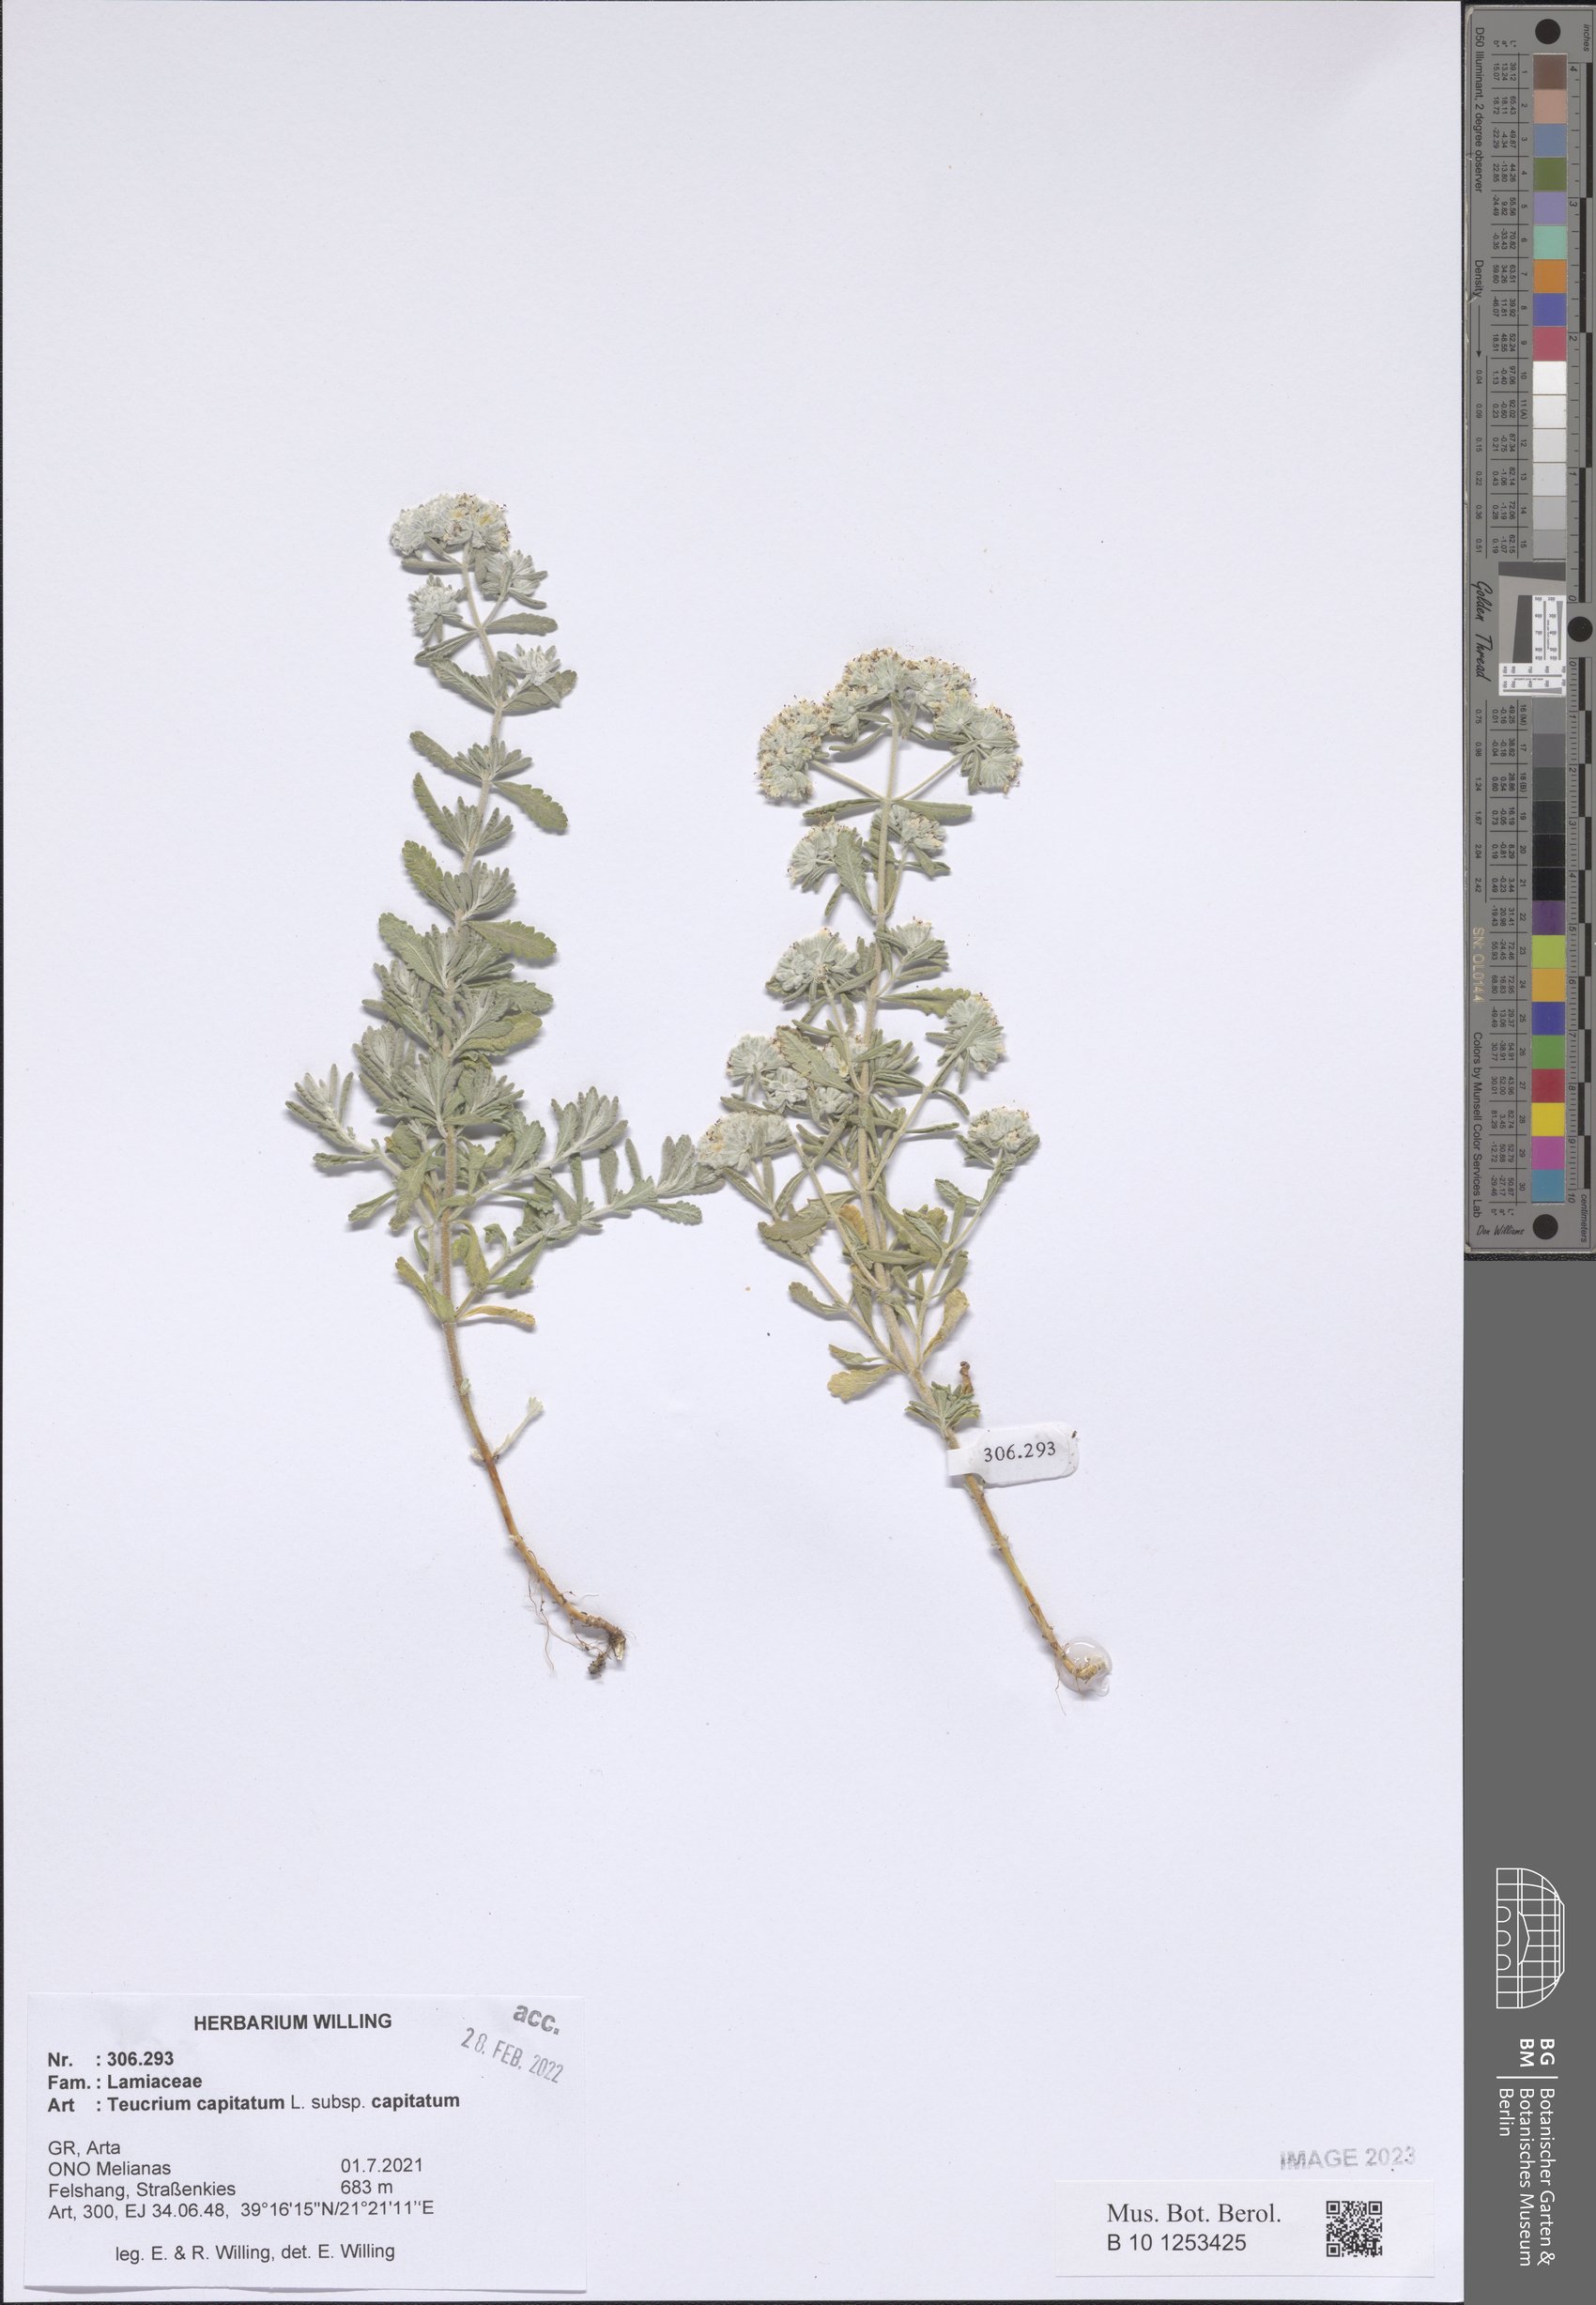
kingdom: Plantae
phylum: Tracheophyta
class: Magnoliopsida
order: Lamiales
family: Lamiaceae
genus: Teucrium
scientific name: Teucrium capitatum
